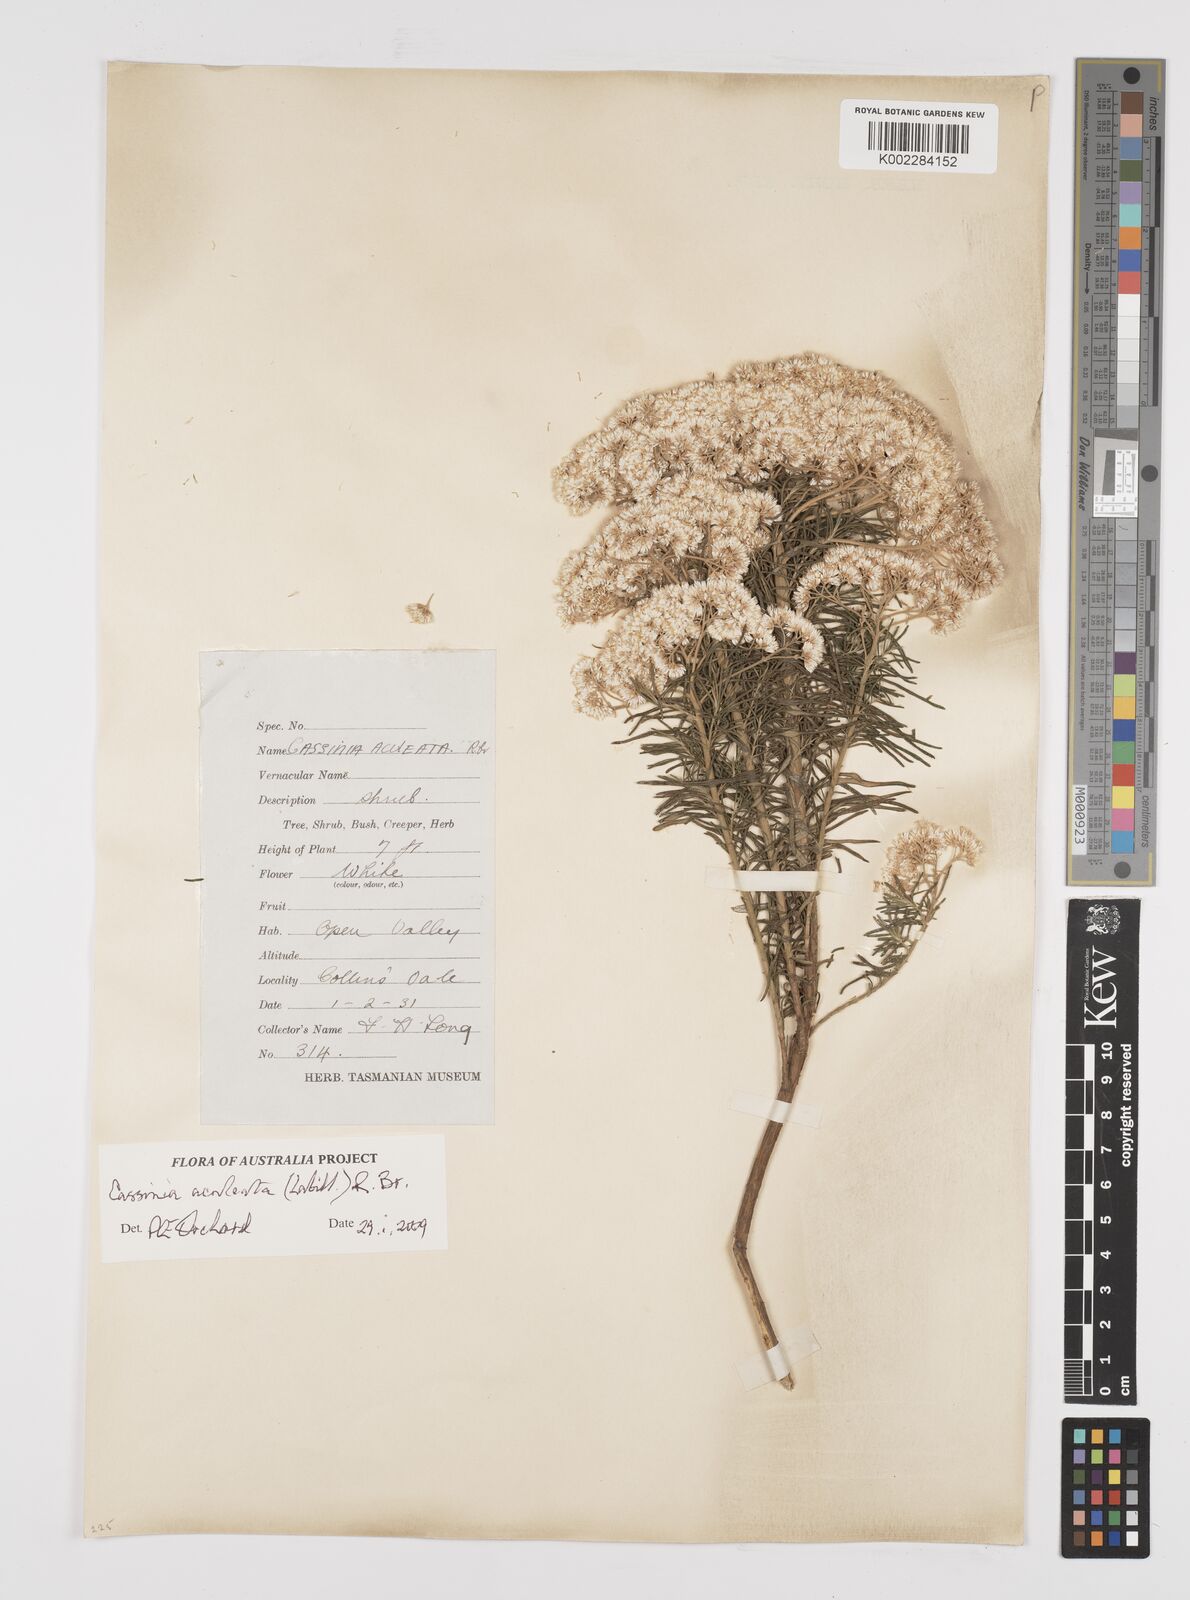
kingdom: Plantae
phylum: Tracheophyta
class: Magnoliopsida
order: Asterales
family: Asteraceae
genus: Cassinia
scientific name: Cassinia aculeata
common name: Australian tauhinu
